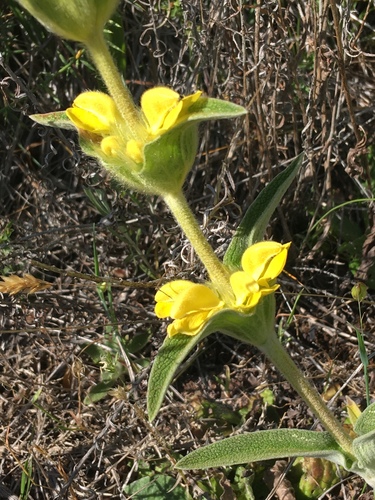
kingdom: Plantae
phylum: Tracheophyta
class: Magnoliopsida
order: Lamiales
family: Lamiaceae
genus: Phlomis
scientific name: Phlomis lychnitis
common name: Lampwickplant
